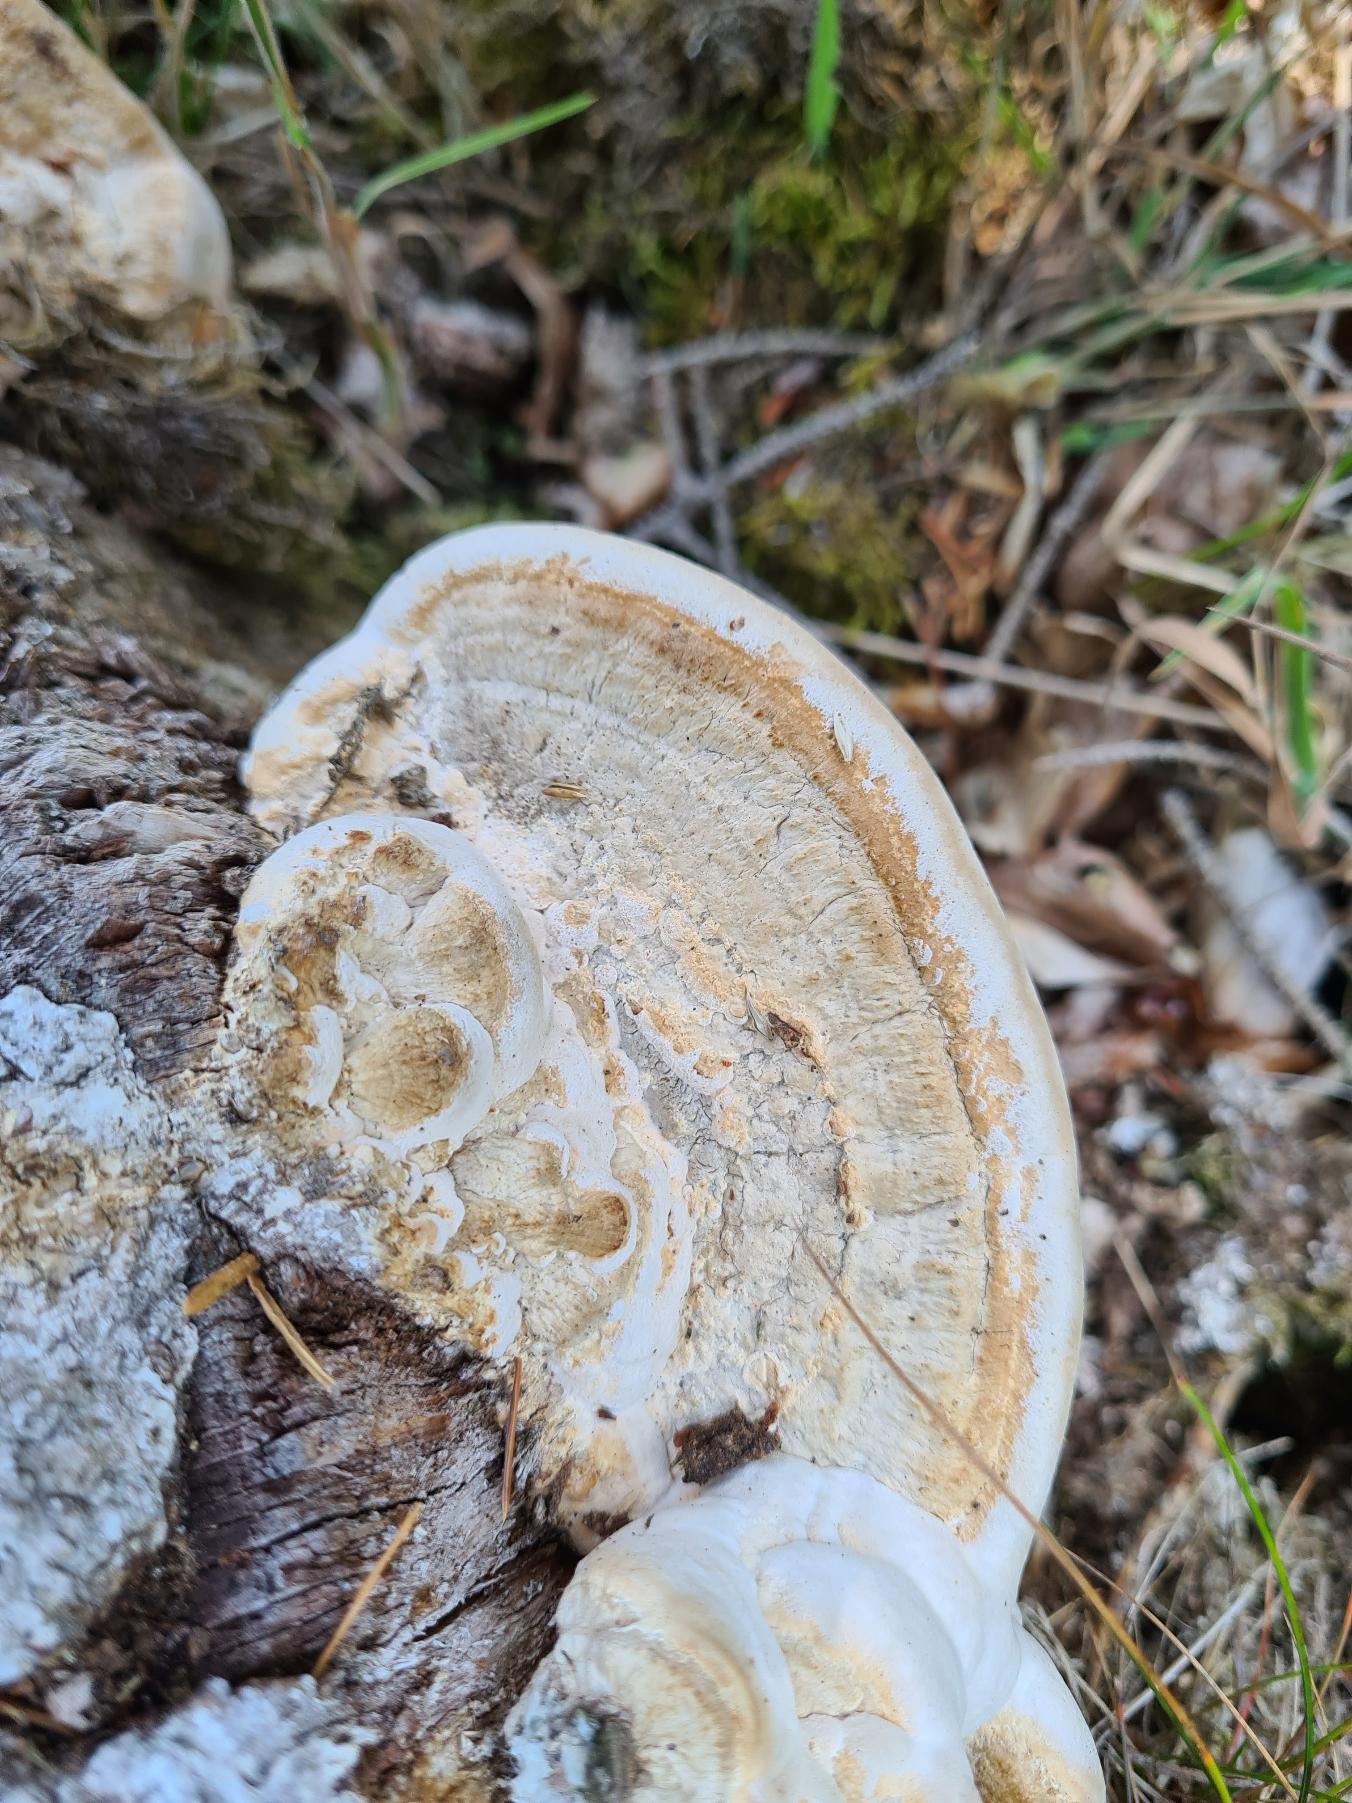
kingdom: Fungi
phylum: Basidiomycota
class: Agaricomycetes
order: Polyporales
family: Fomitopsidaceae
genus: Daedalea
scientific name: Daedalea quercina
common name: Ege-labyrintsvamp
